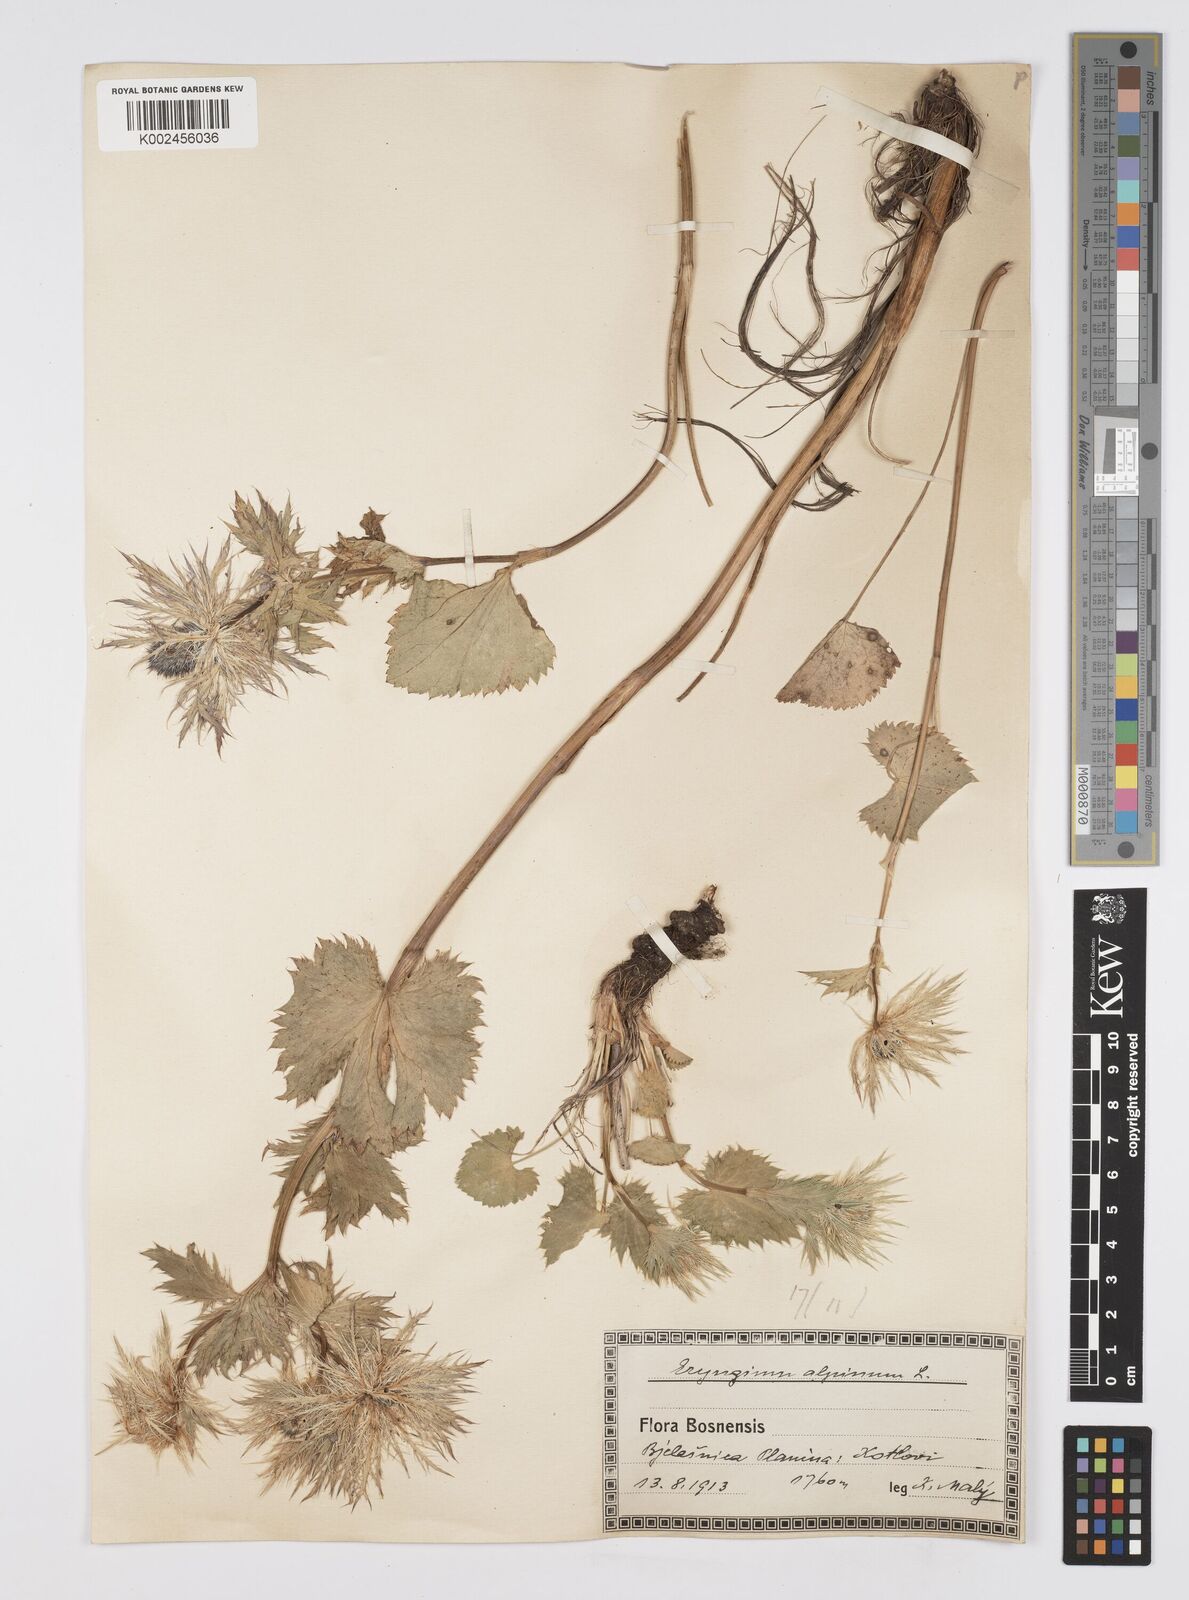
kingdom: Plantae
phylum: Tracheophyta
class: Magnoliopsida
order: Apiales
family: Apiaceae
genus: Eryngium
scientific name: Eryngium
